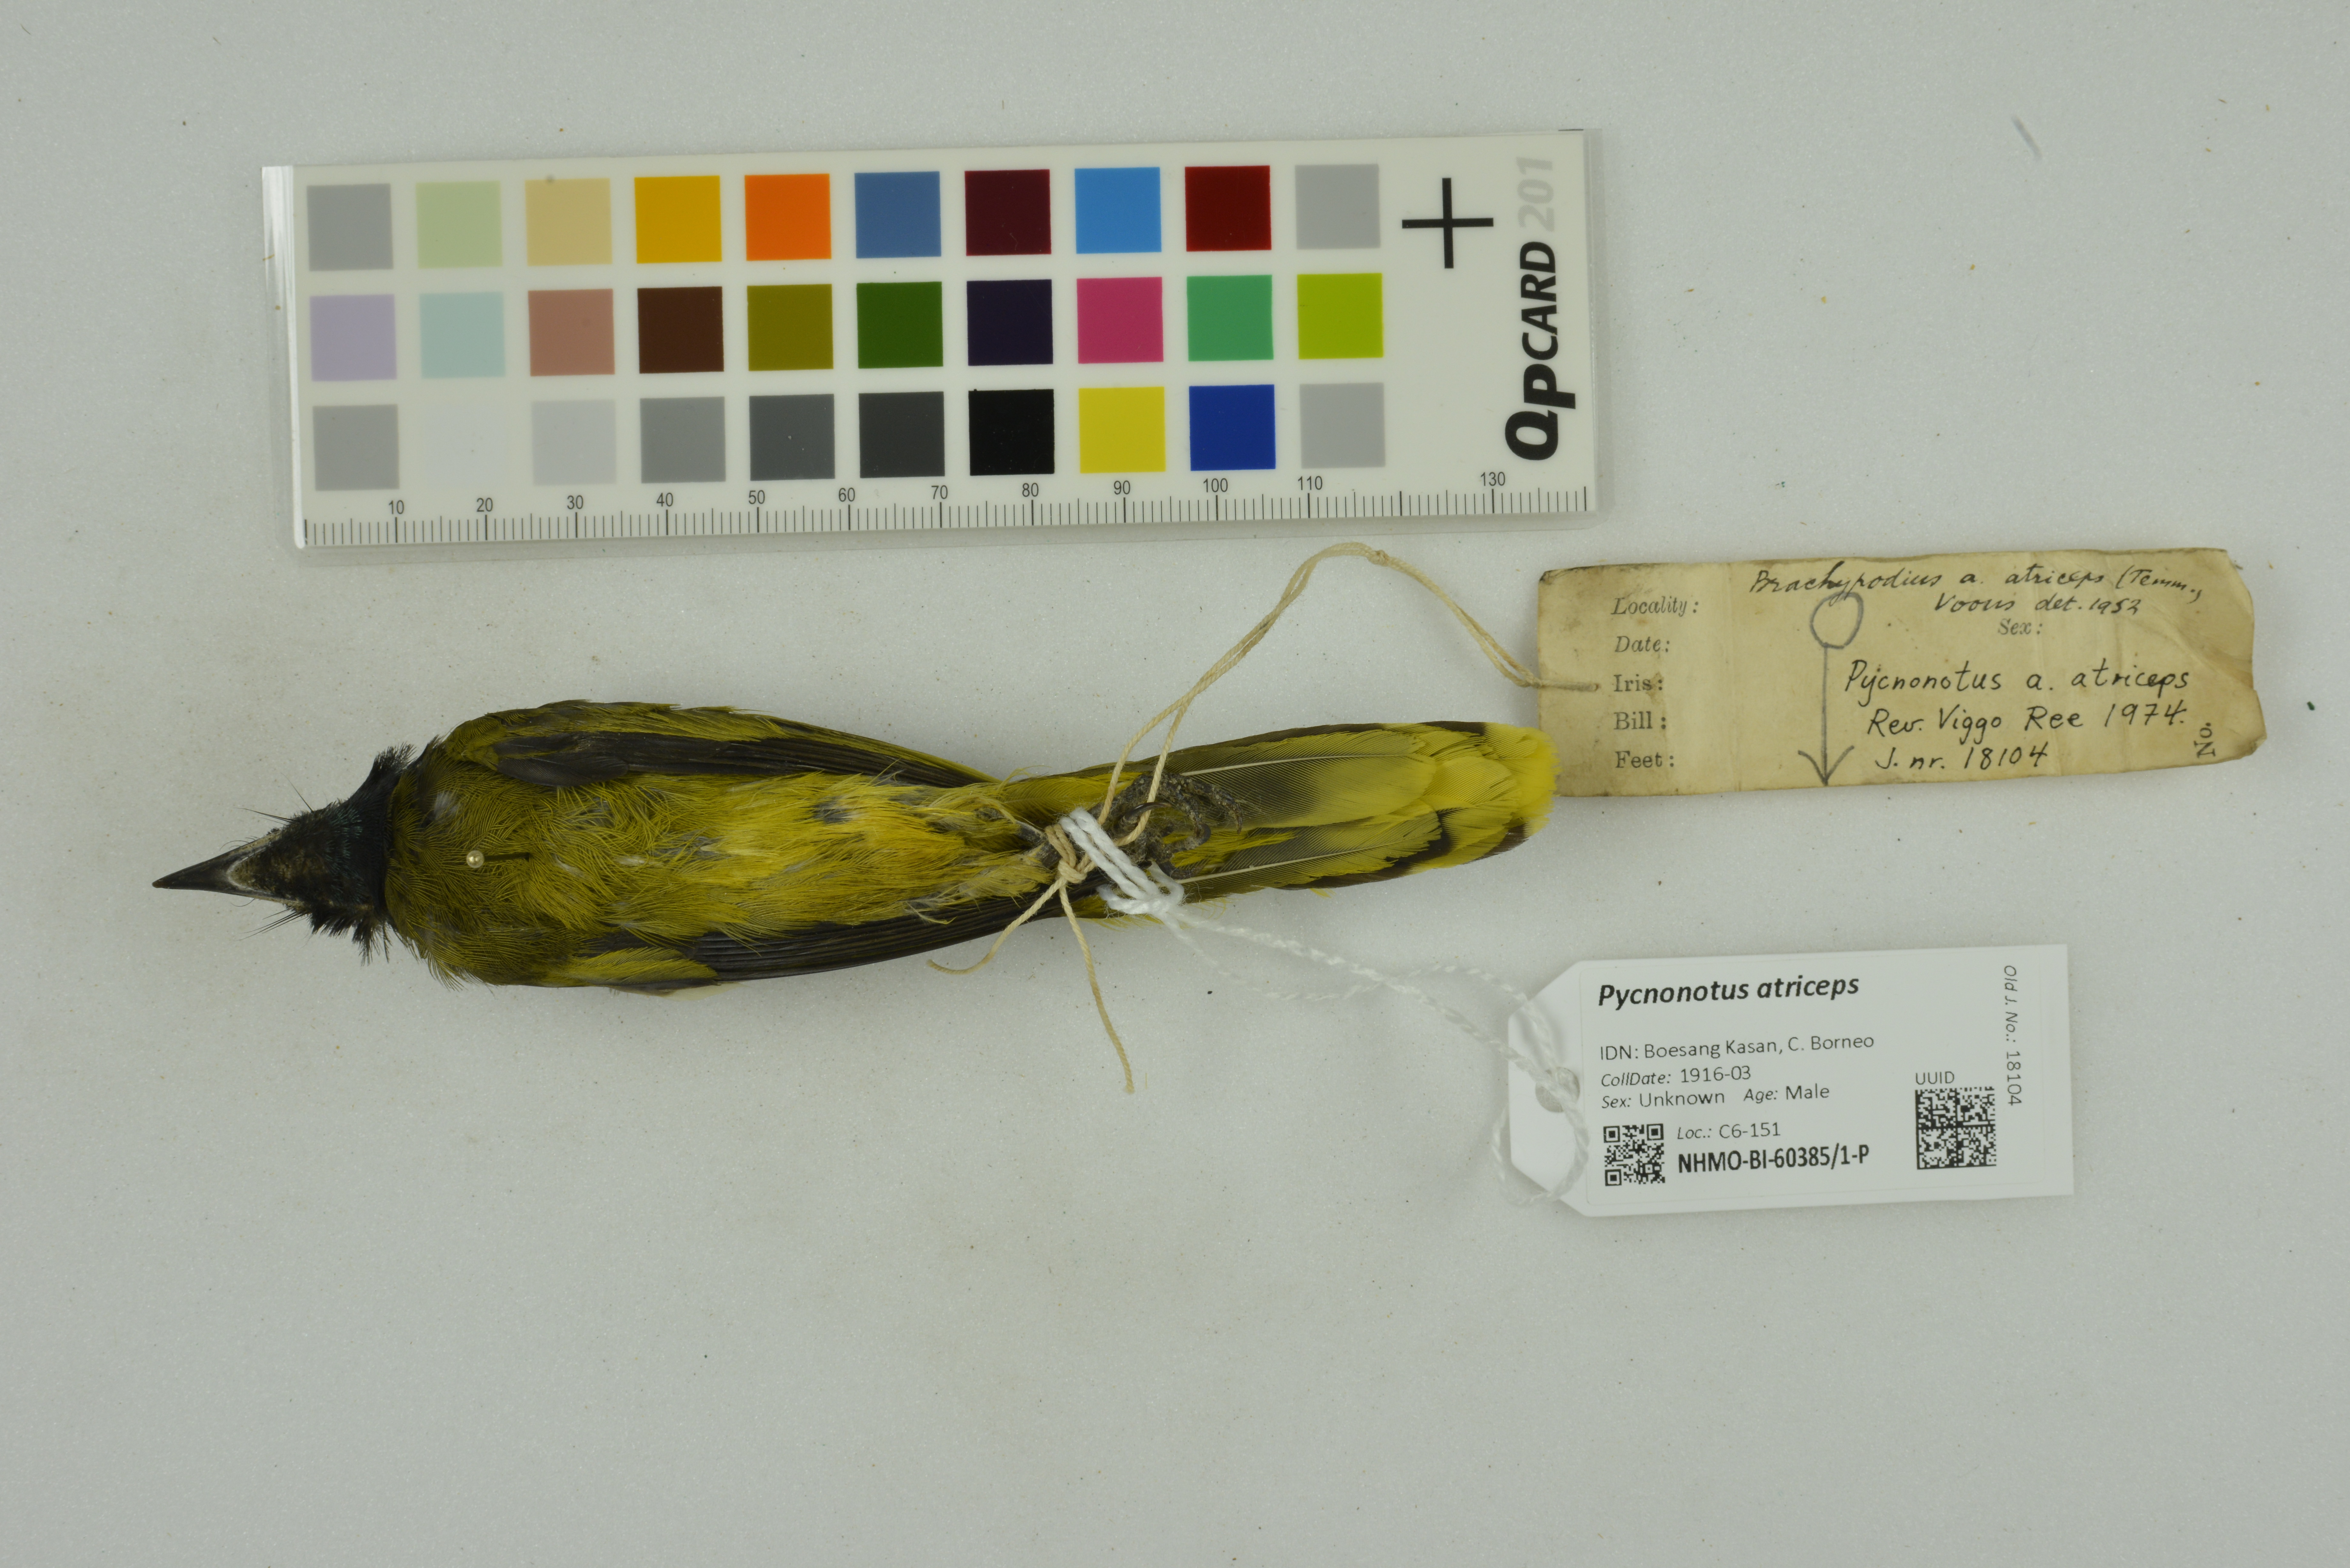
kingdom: Animalia
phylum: Chordata
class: Aves
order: Passeriformes
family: Pycnonotidae
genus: Brachypodius
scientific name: Brachypodius melanocephalos
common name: Black-headed bulbul
